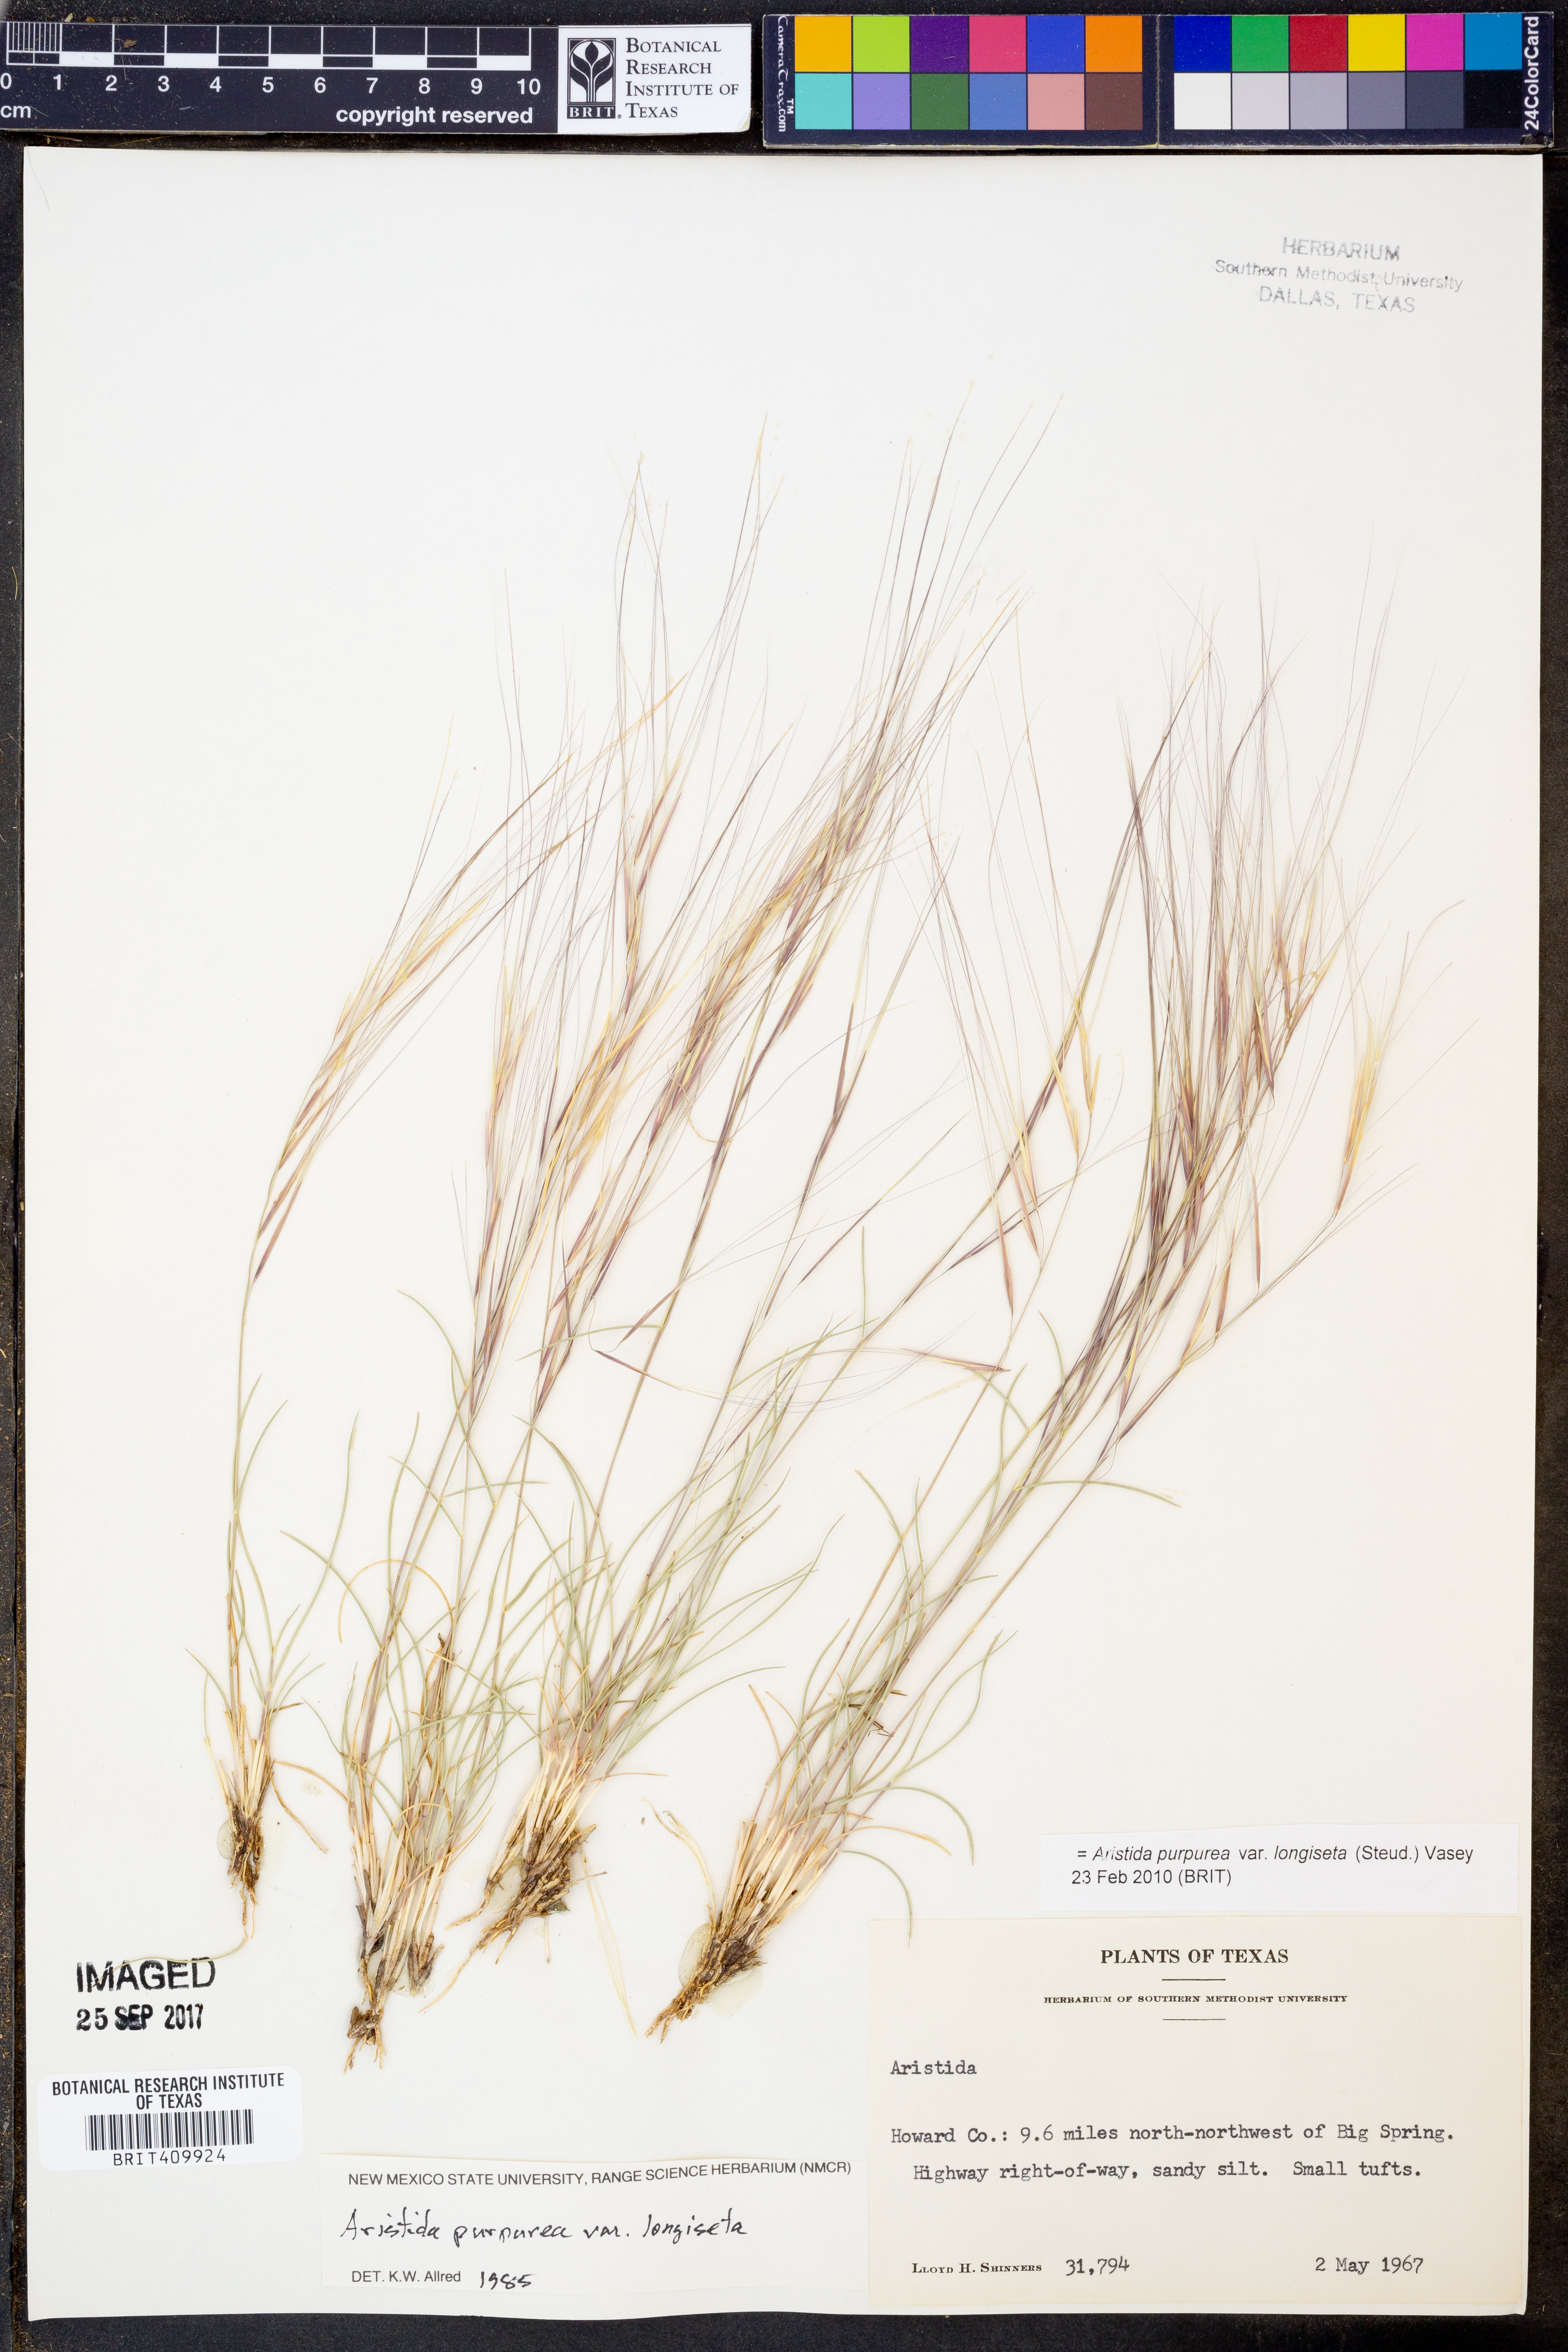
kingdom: Plantae
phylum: Tracheophyta
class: Liliopsida
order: Poales
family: Poaceae
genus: Aristida
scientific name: Aristida longiseta
